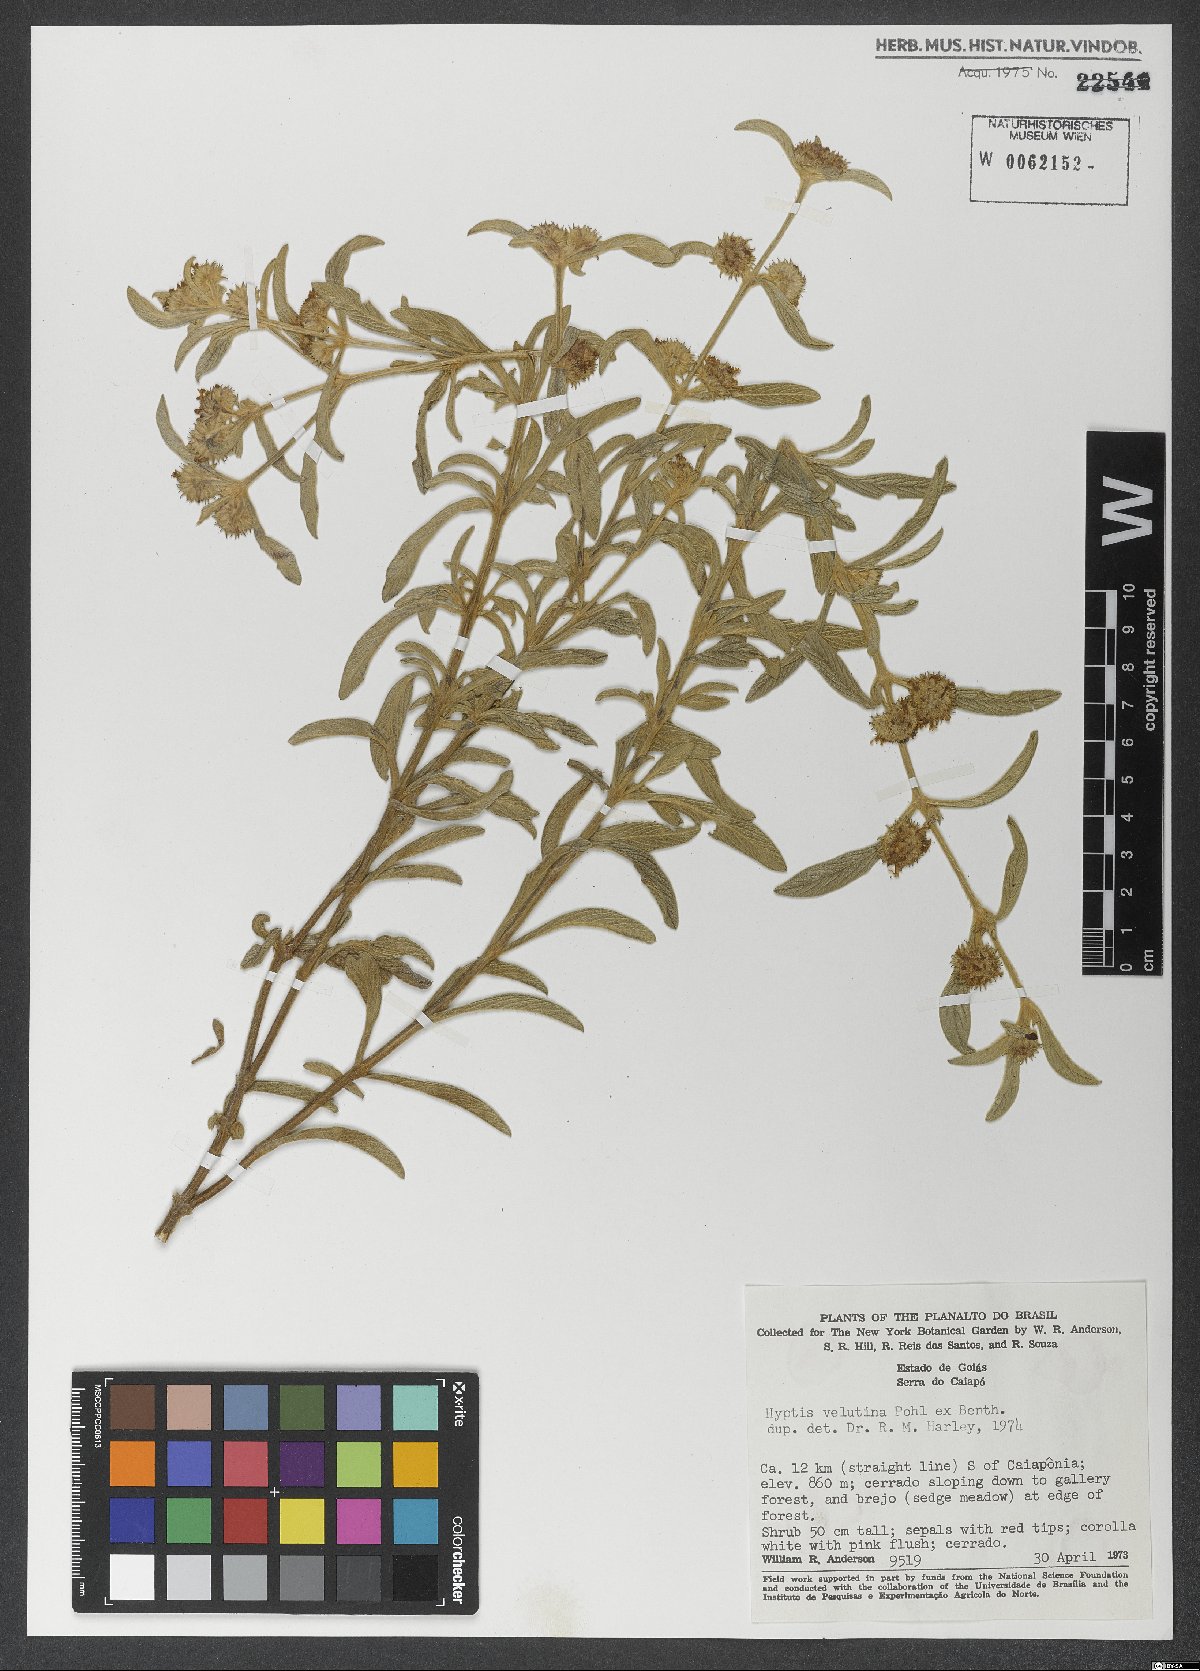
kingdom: Plantae
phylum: Tracheophyta
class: Magnoliopsida
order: Lamiales
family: Lamiaceae
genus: Hyptis
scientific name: Hyptis velutina
